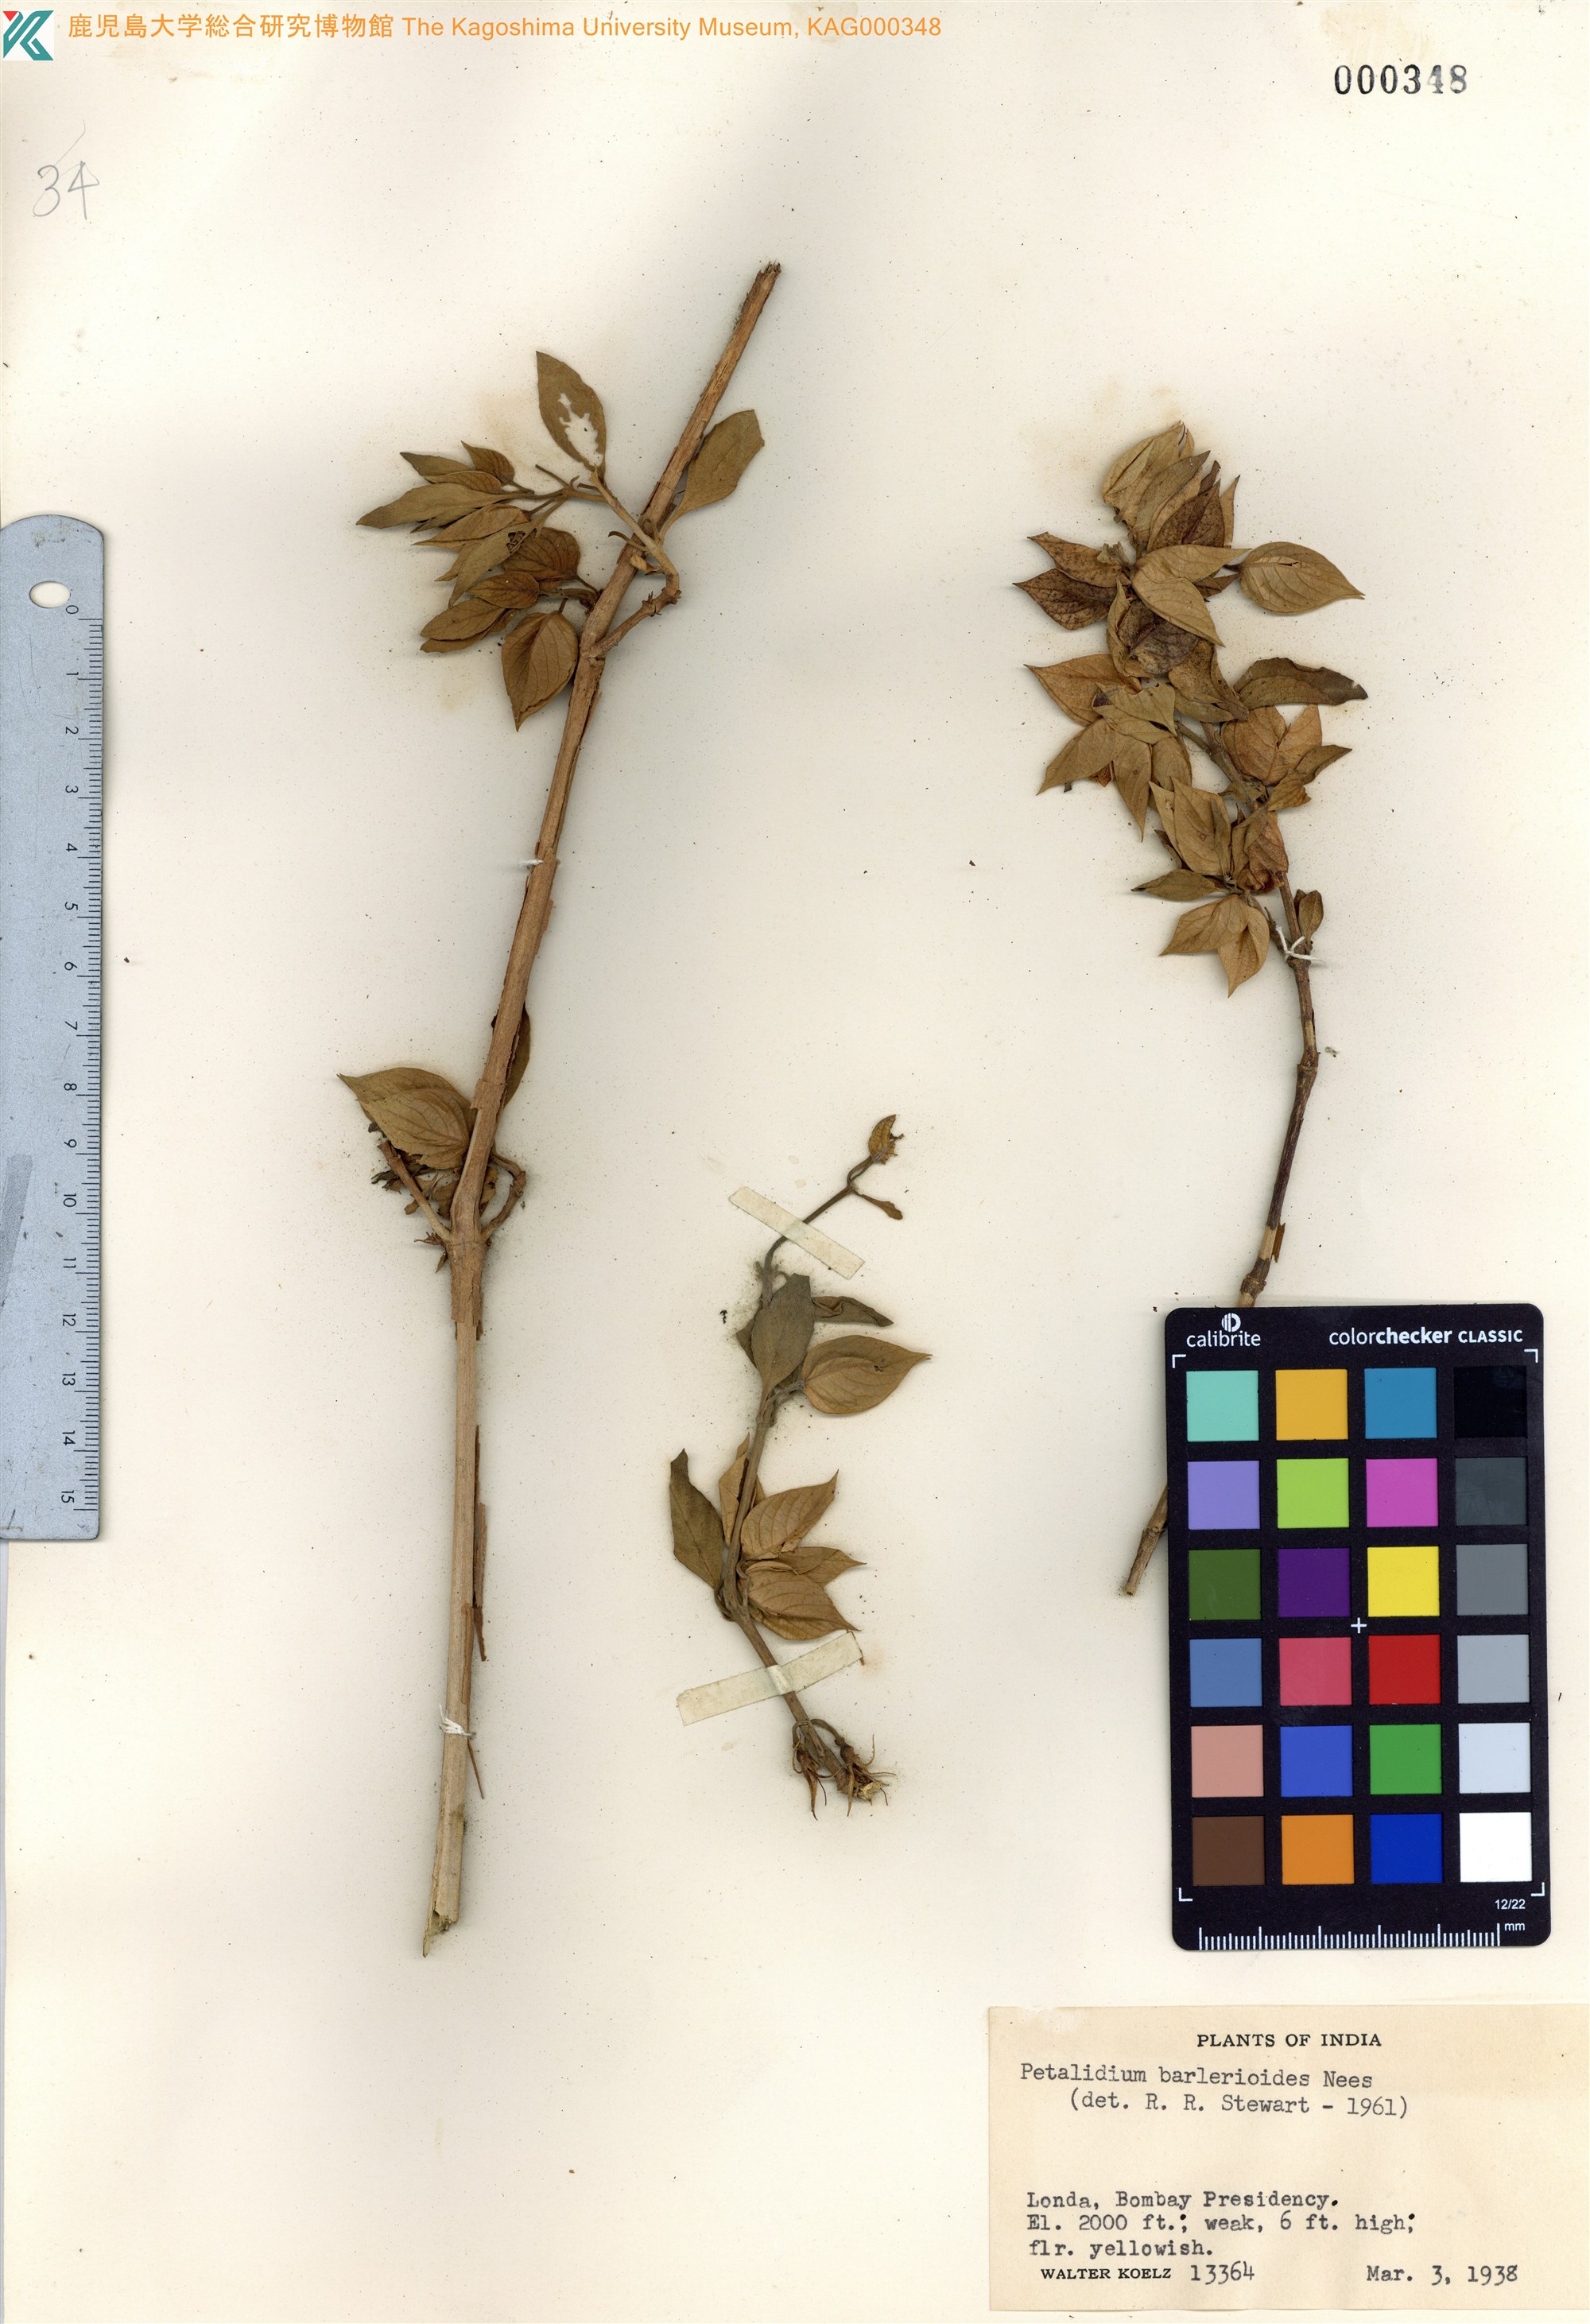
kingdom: Plantae
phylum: Tracheophyta
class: Magnoliopsida
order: Lamiales
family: Acanthaceae
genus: Eranthemum
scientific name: Eranthemum suffruticosum
